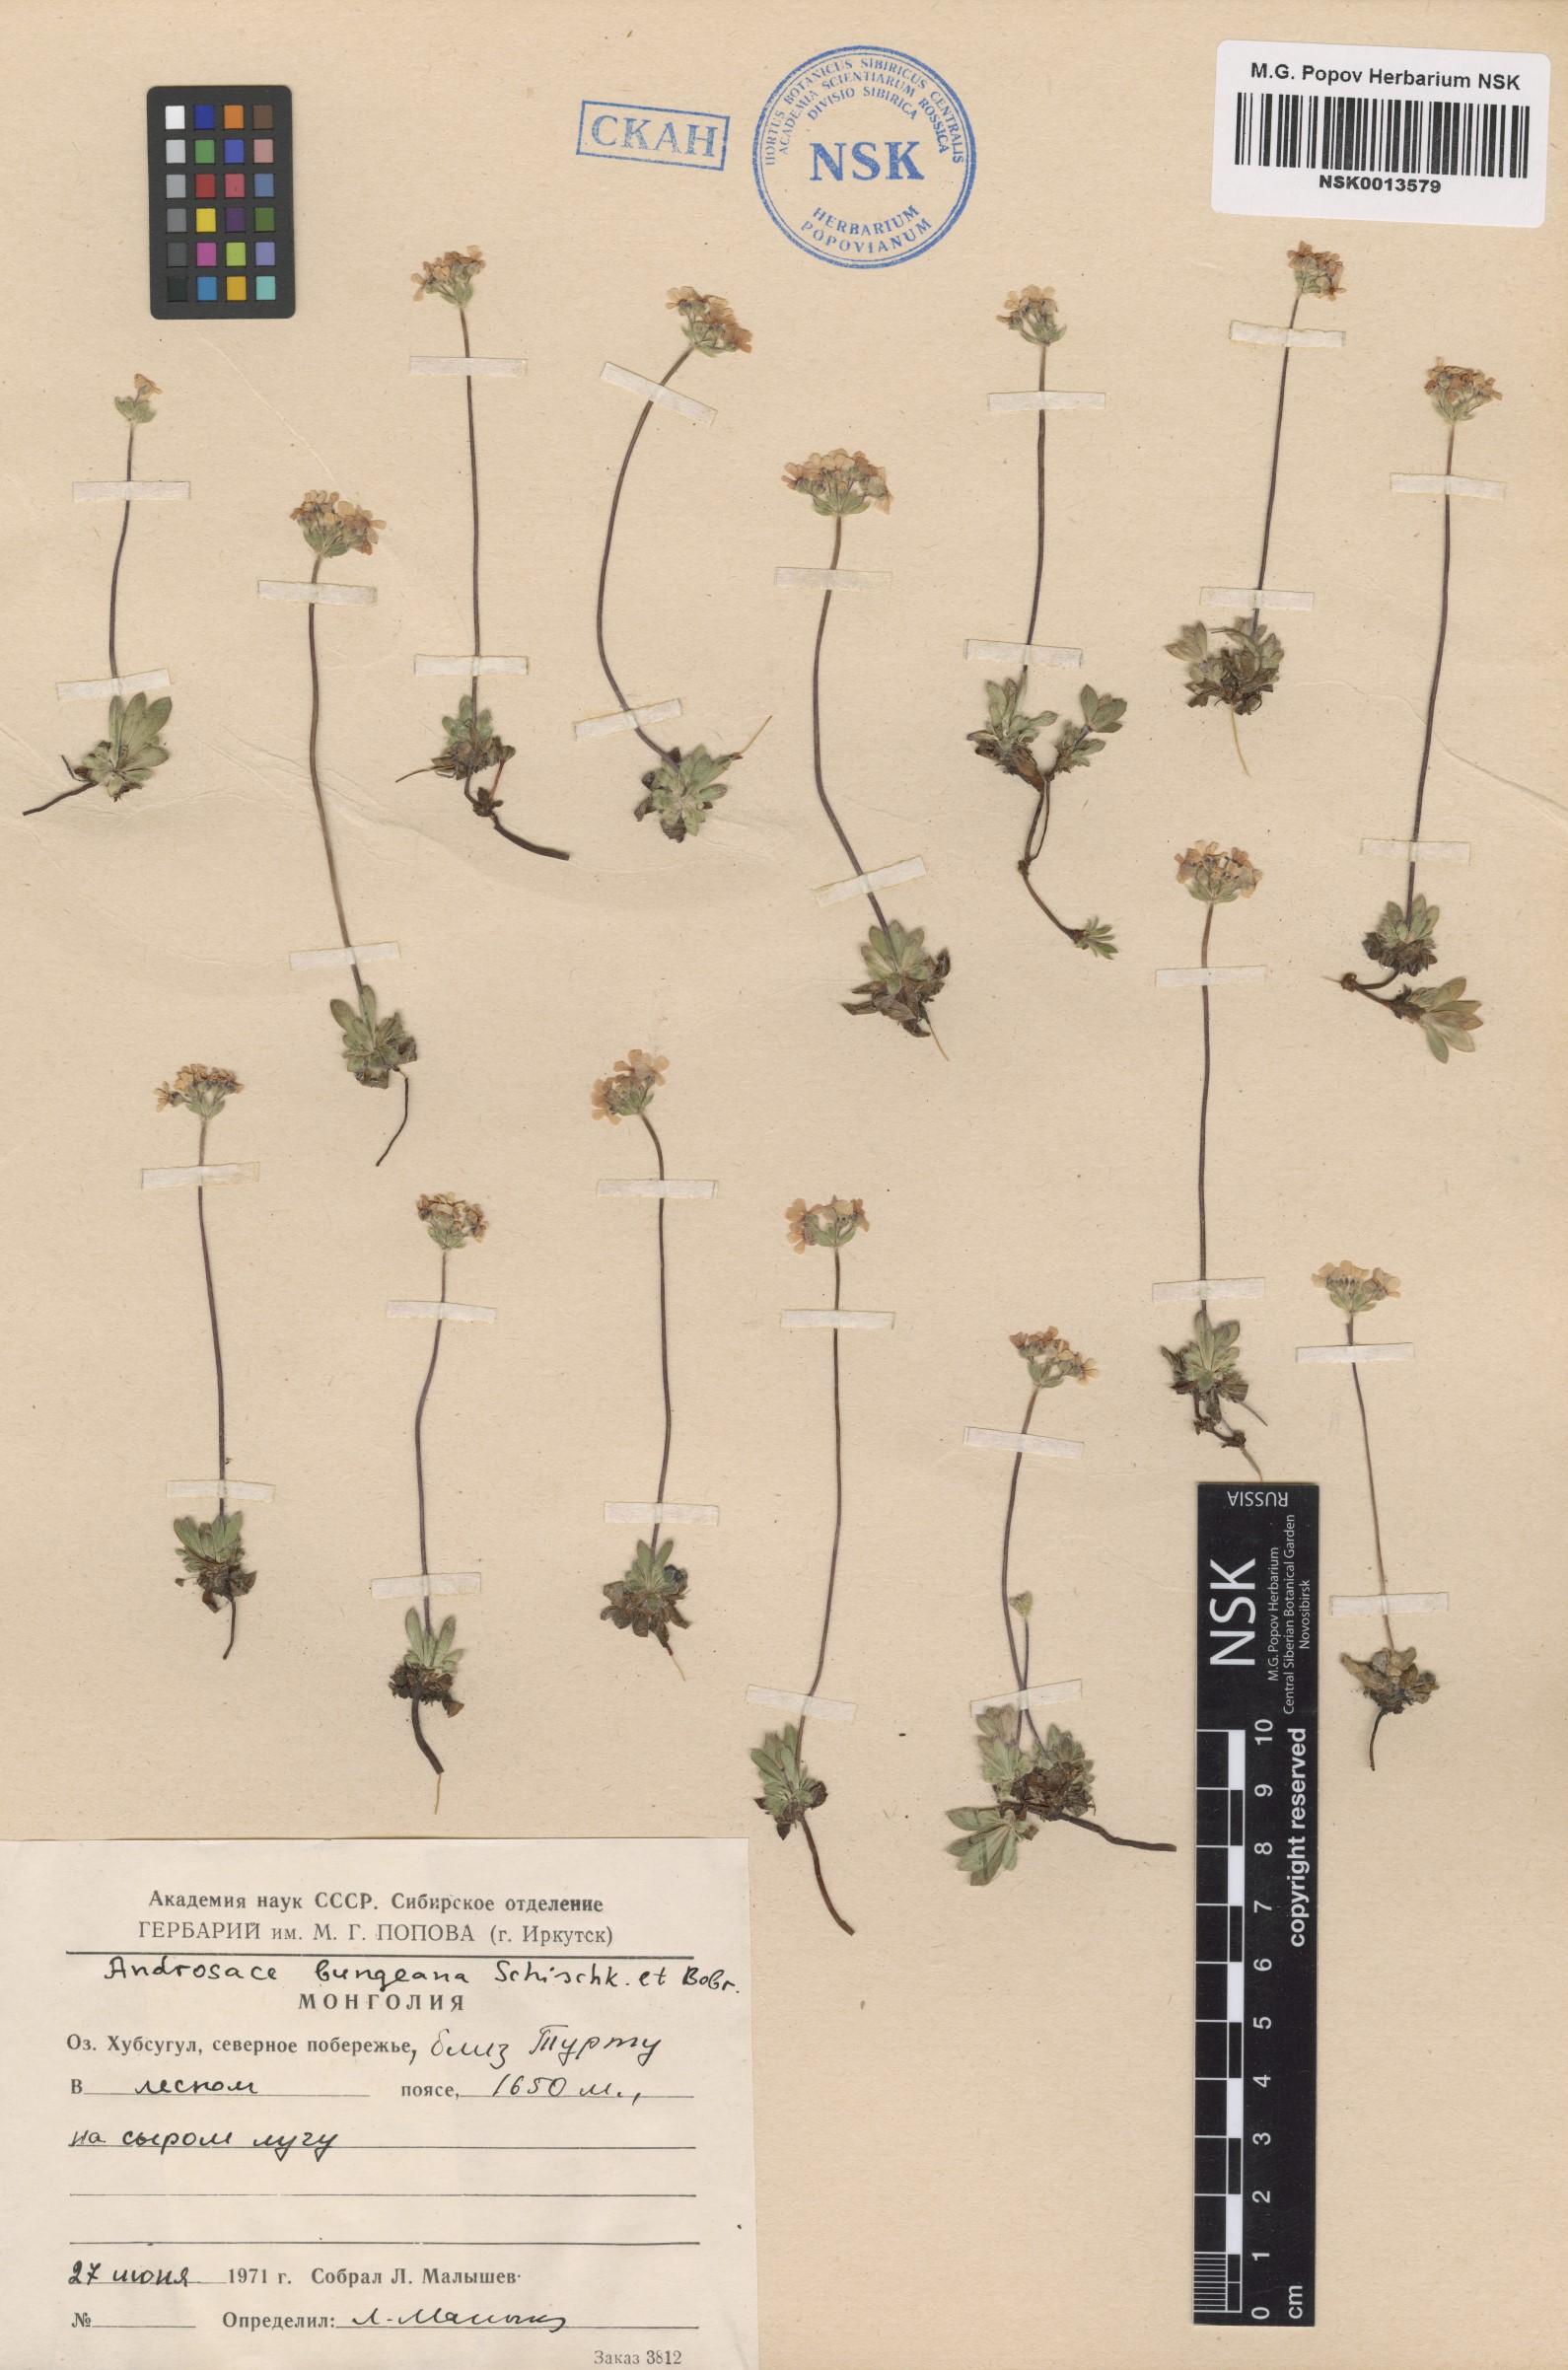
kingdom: Plantae
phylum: Tracheophyta
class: Magnoliopsida
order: Ericales
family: Primulaceae
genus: Androsace
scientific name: Androsace bungeana
